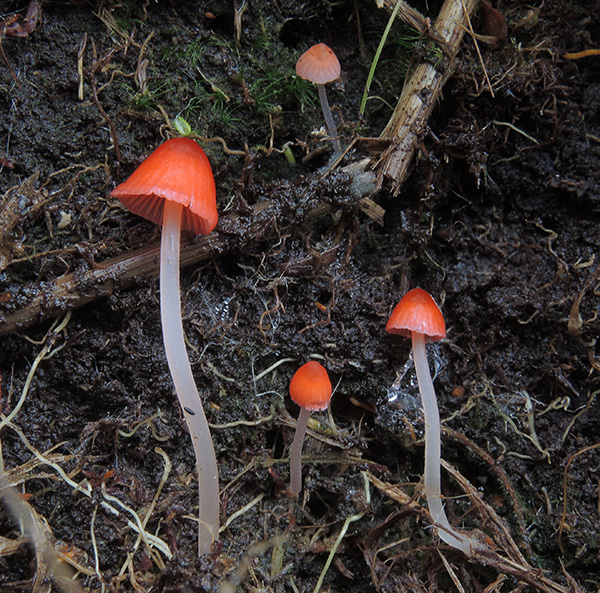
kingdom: Fungi
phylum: Basidiomycota
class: Agaricomycetes
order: Agaricales
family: Mycenaceae
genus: Atheniella
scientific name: Atheniella adonis
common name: rønnerød huesvamp
